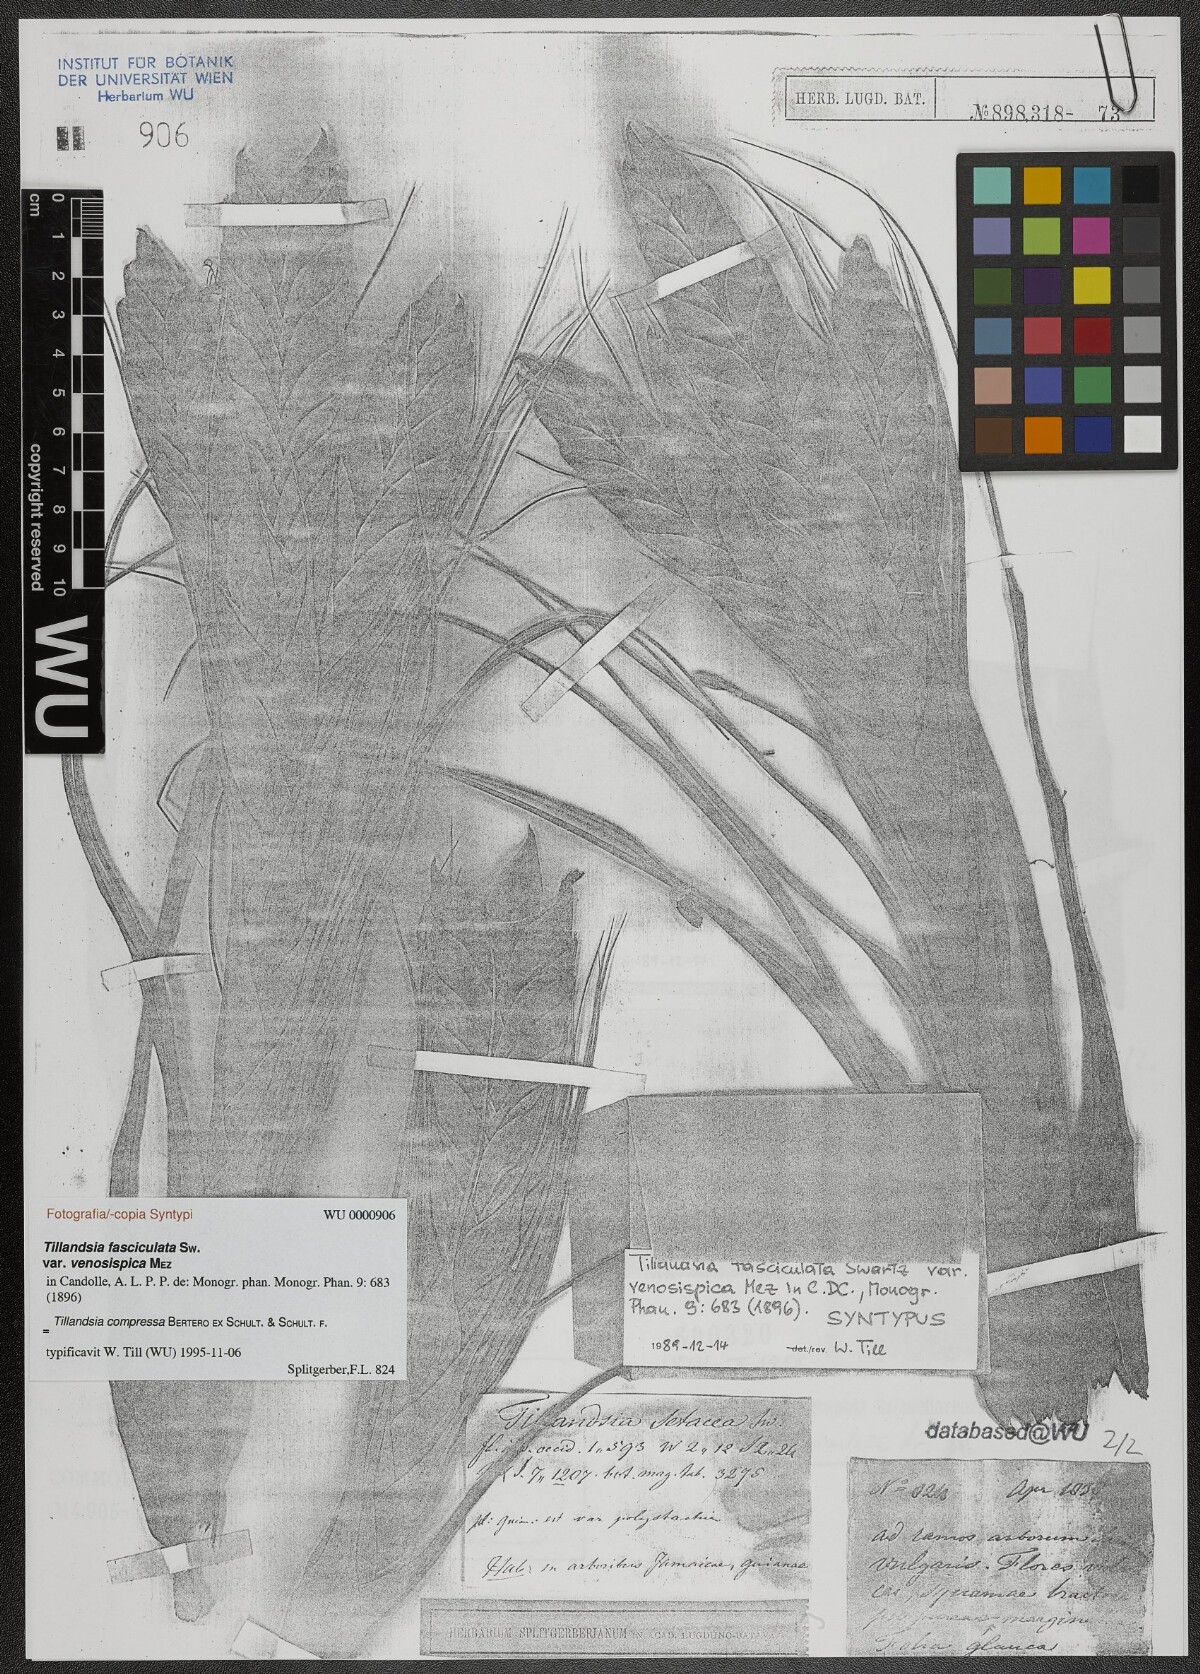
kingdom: Plantae
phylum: Tracheophyta
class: Liliopsida
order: Poales
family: Bromeliaceae
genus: Tillandsia
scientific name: Tillandsia compressa
